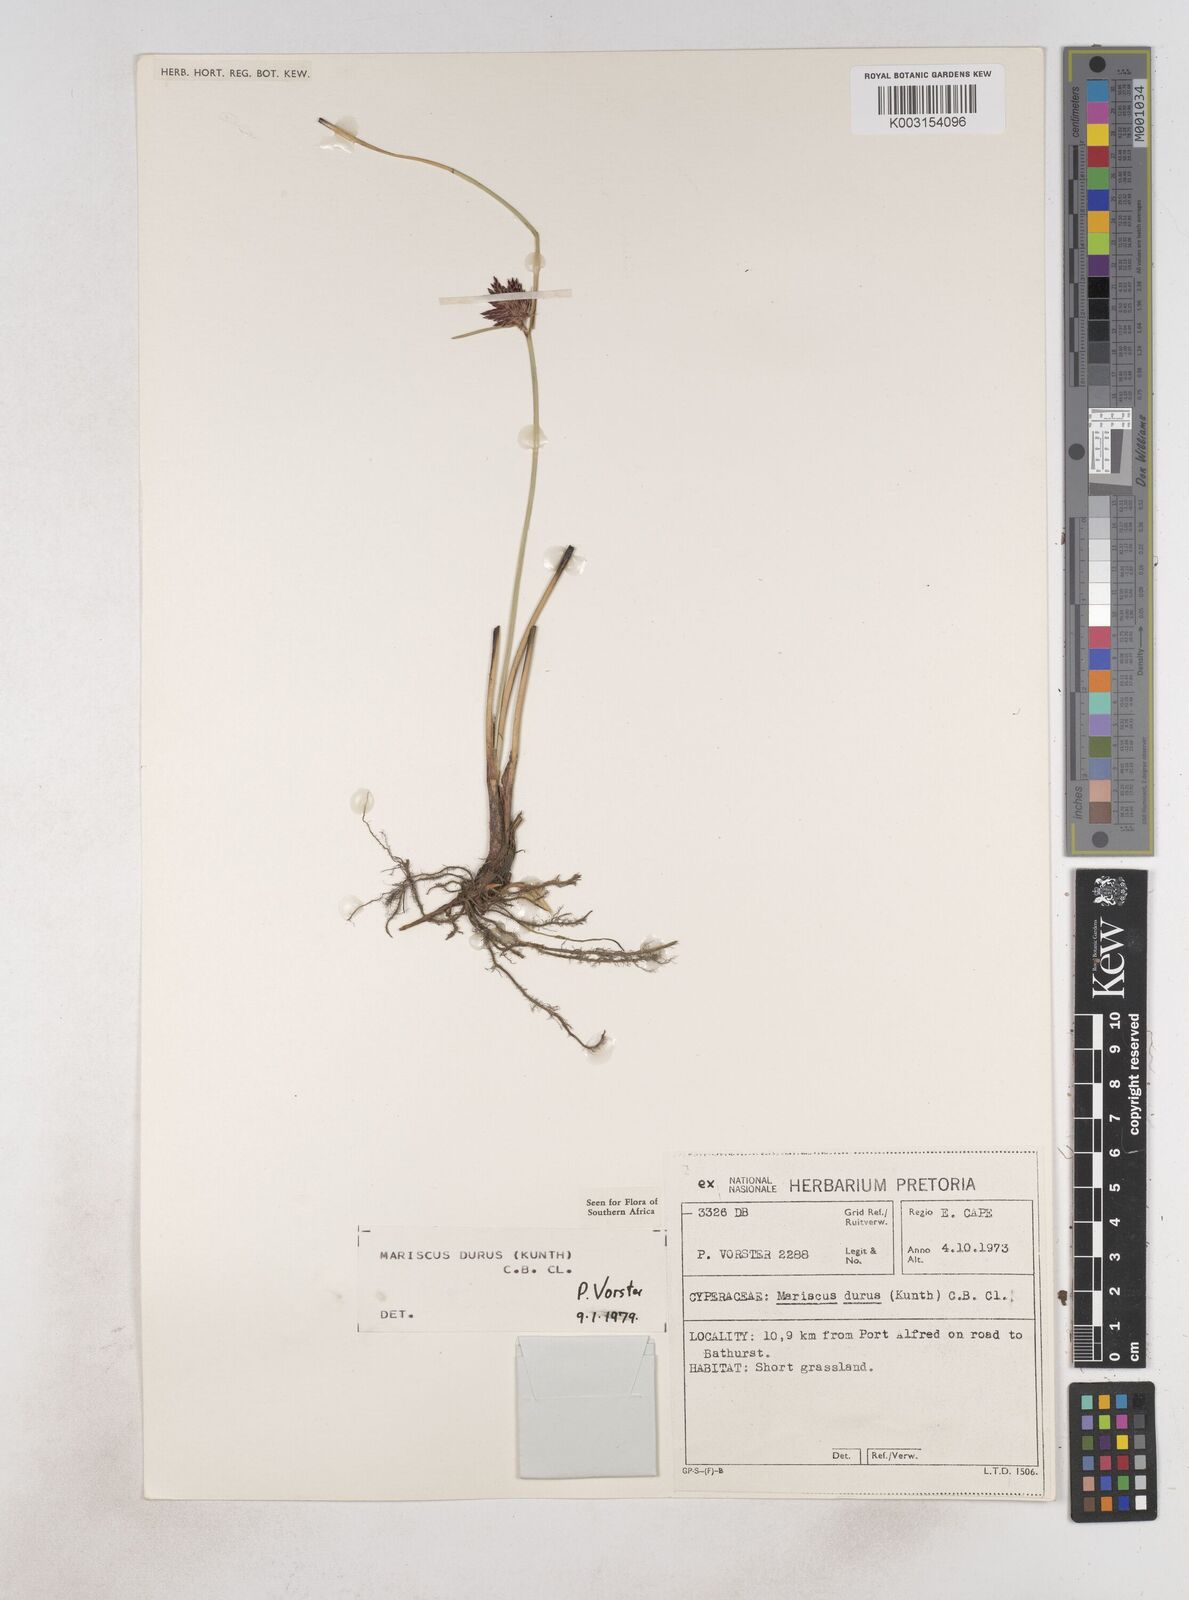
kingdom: Plantae
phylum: Tracheophyta
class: Liliopsida
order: Poales
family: Cyperaceae
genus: Cyperus
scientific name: Cyperus durus
